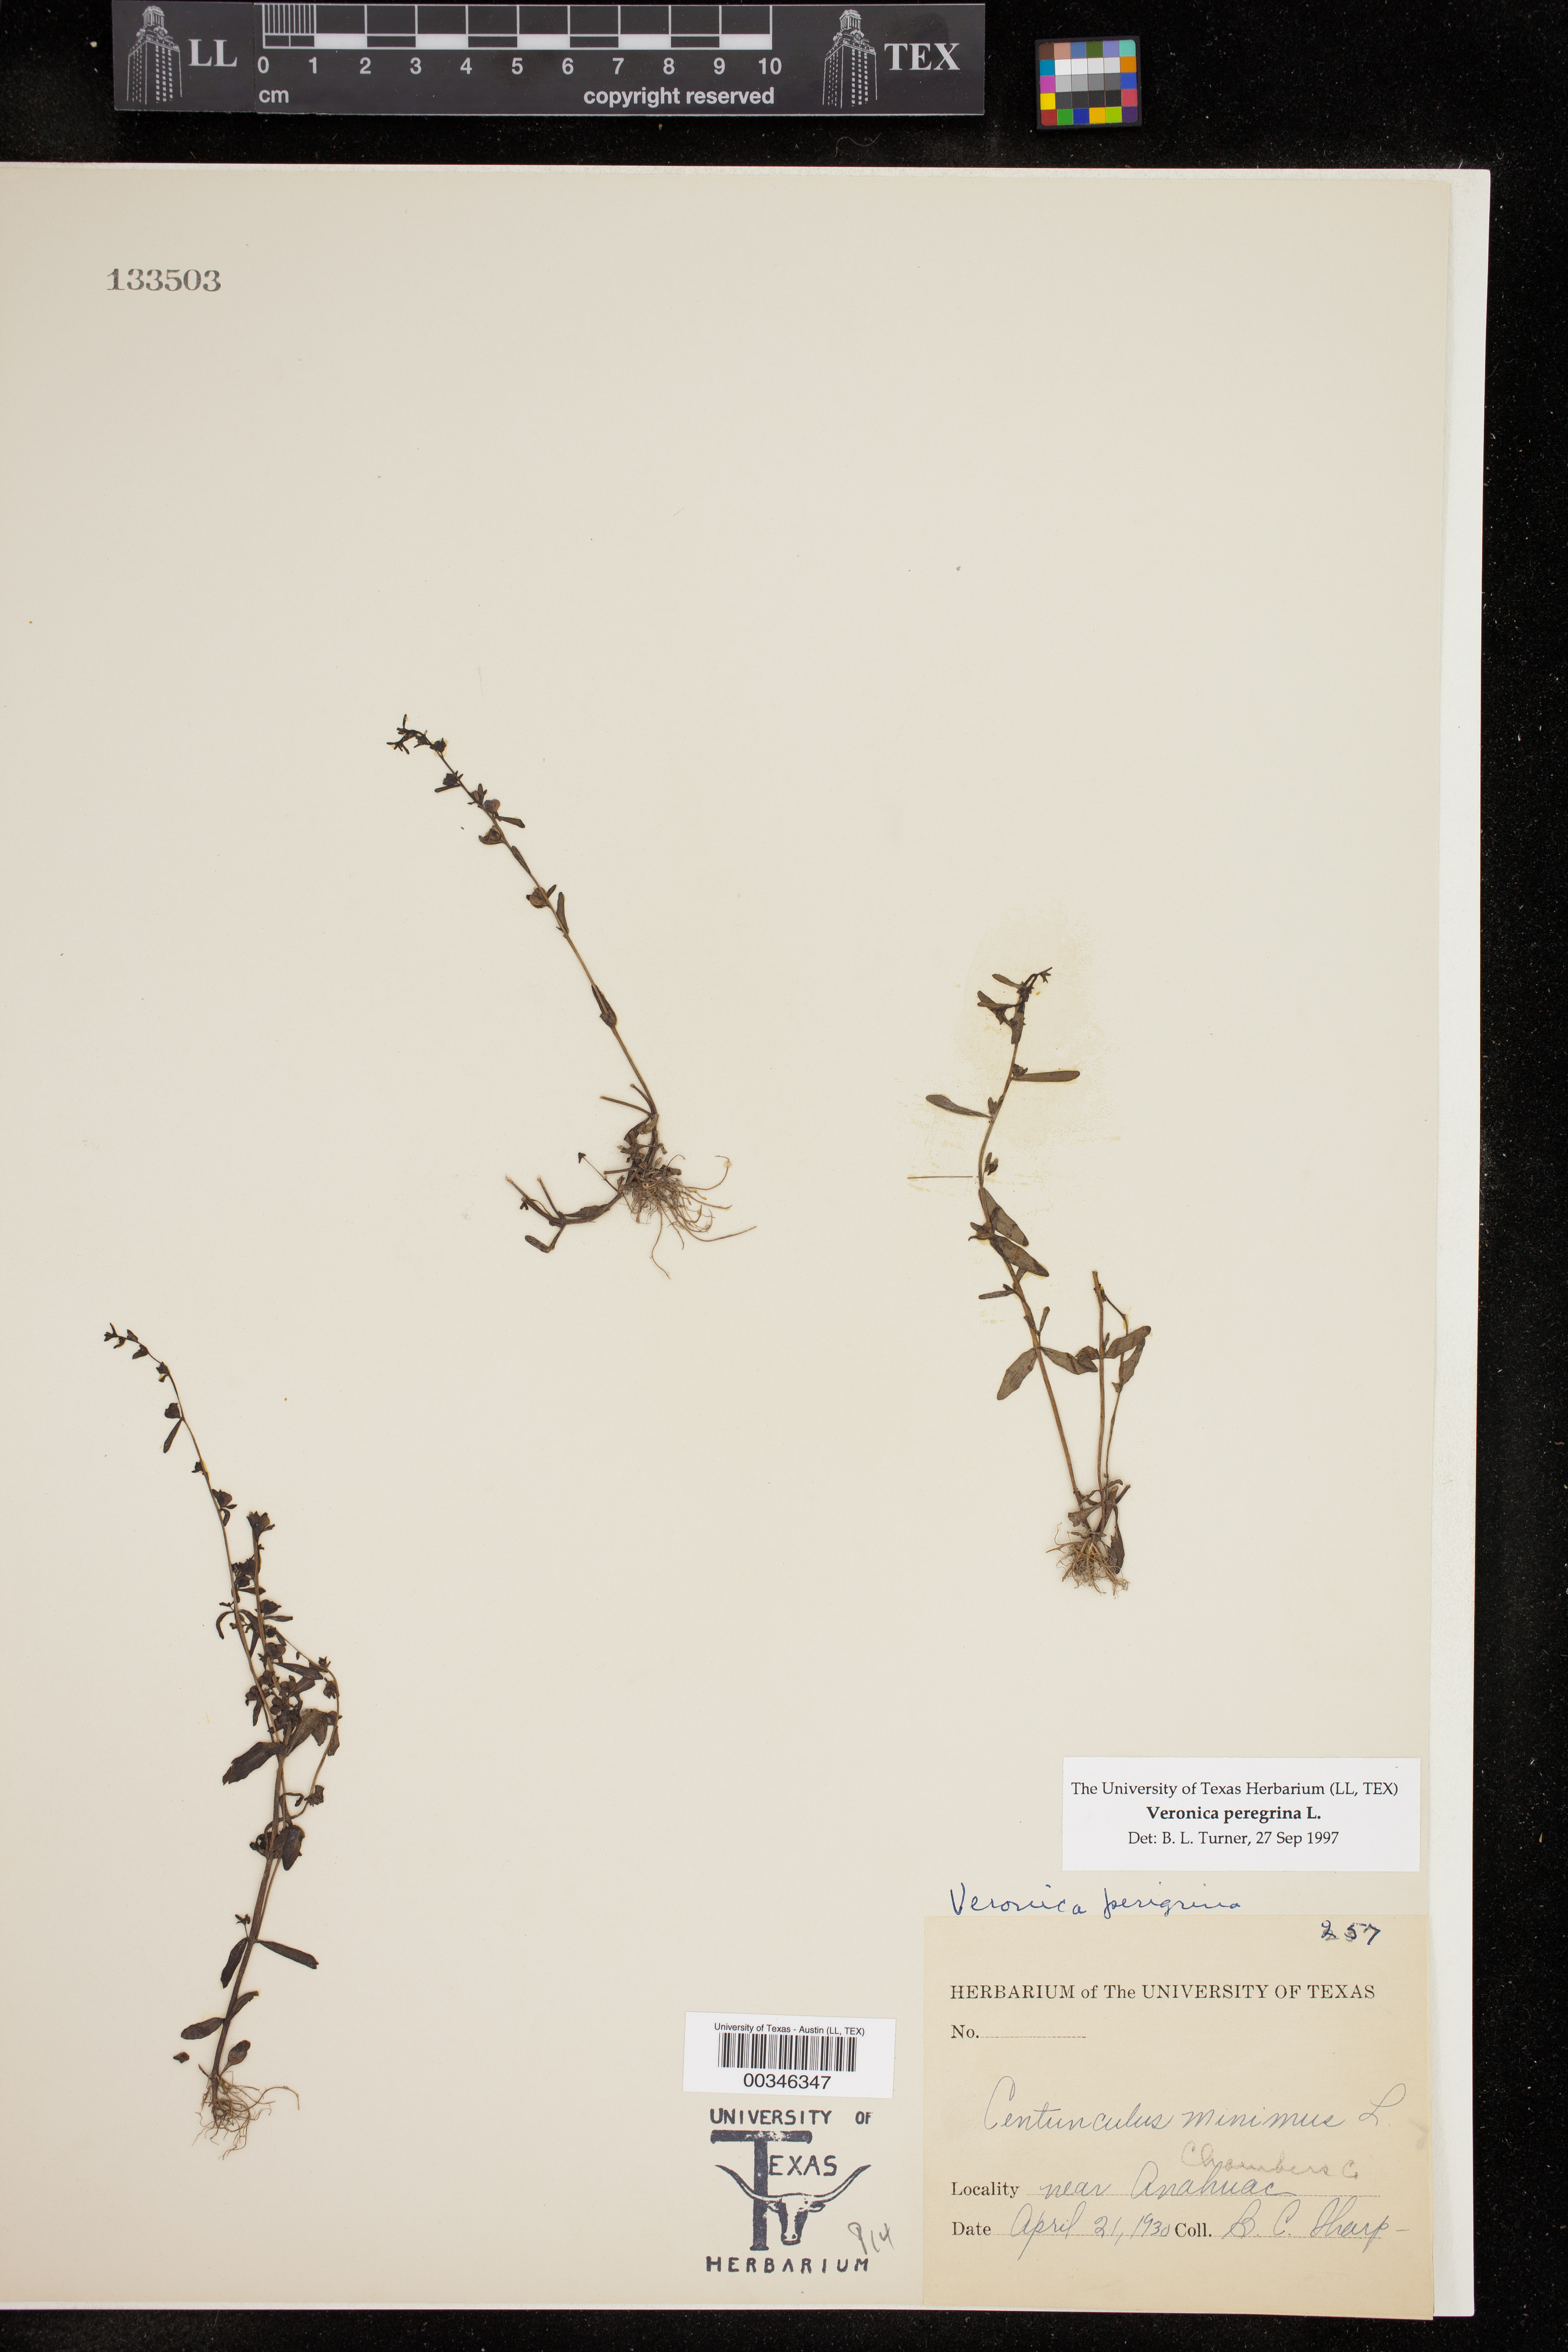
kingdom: Plantae
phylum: Tracheophyta
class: Magnoliopsida
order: Lamiales
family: Plantaginaceae
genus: Veronica
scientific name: Veronica peregrina
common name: Neckweed
